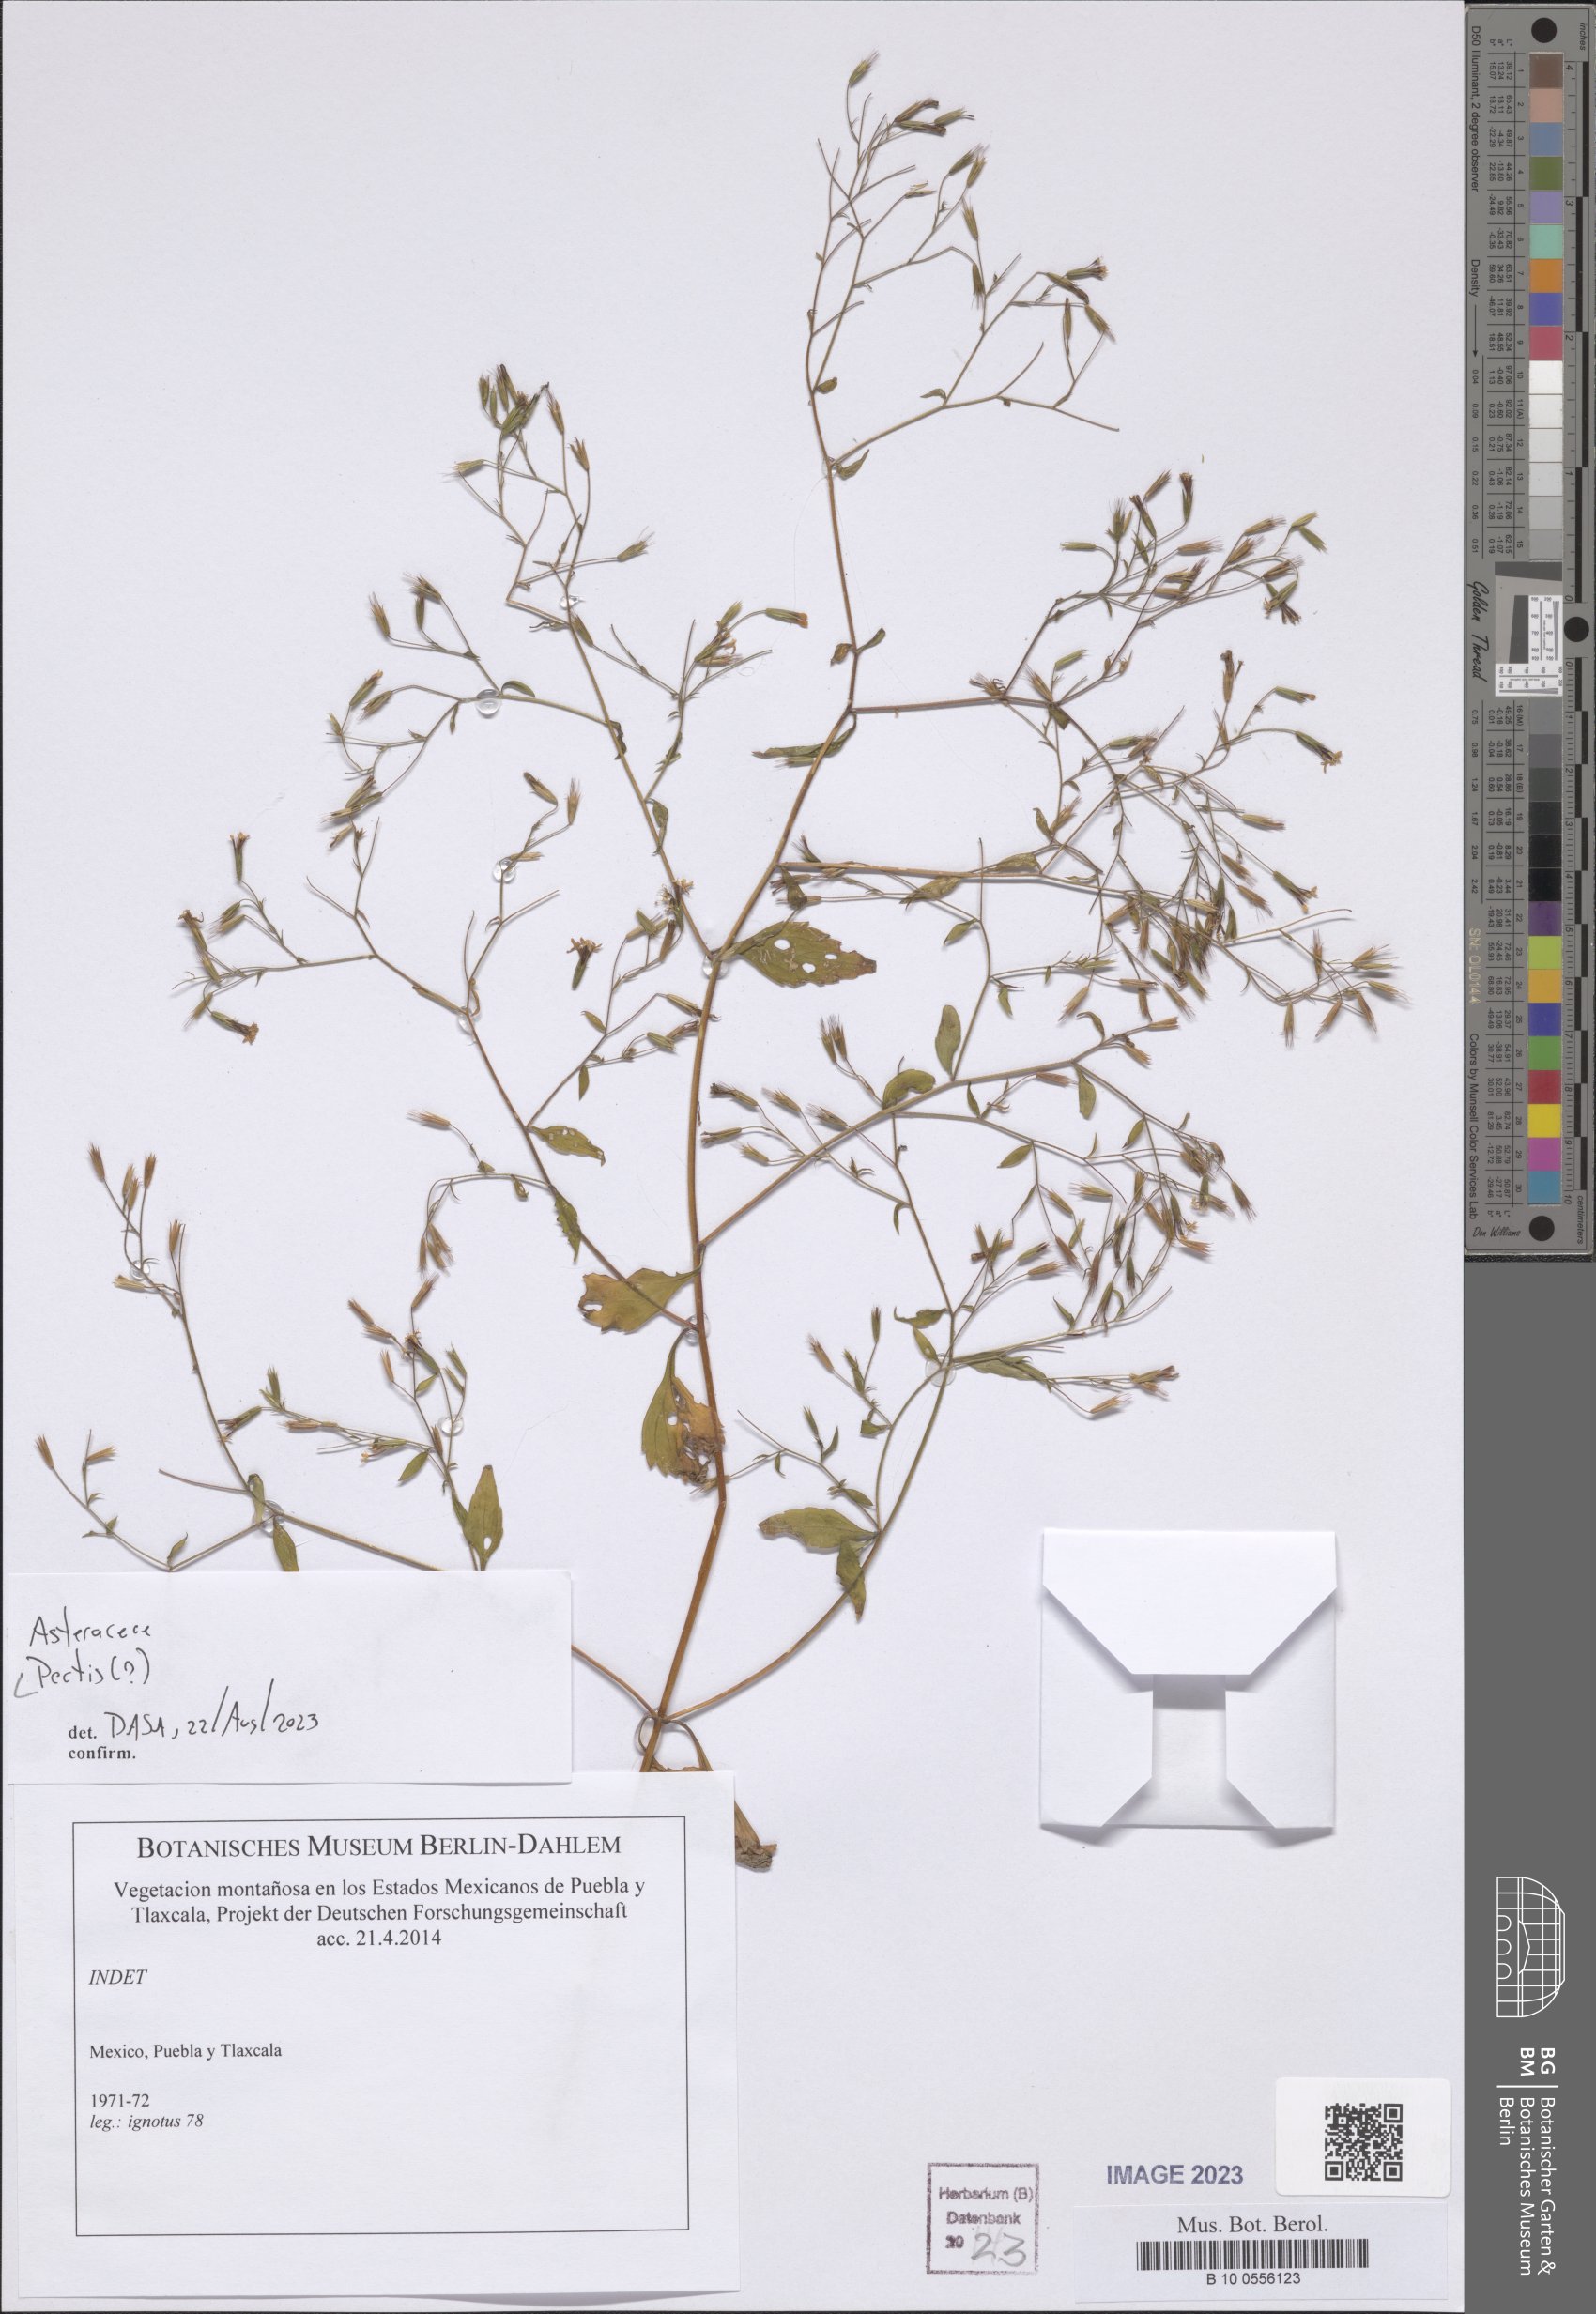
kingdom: Plantae
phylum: Tracheophyta
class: Magnoliopsida
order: Asterales
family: Asteraceae
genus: Pectis
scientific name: Pectis
